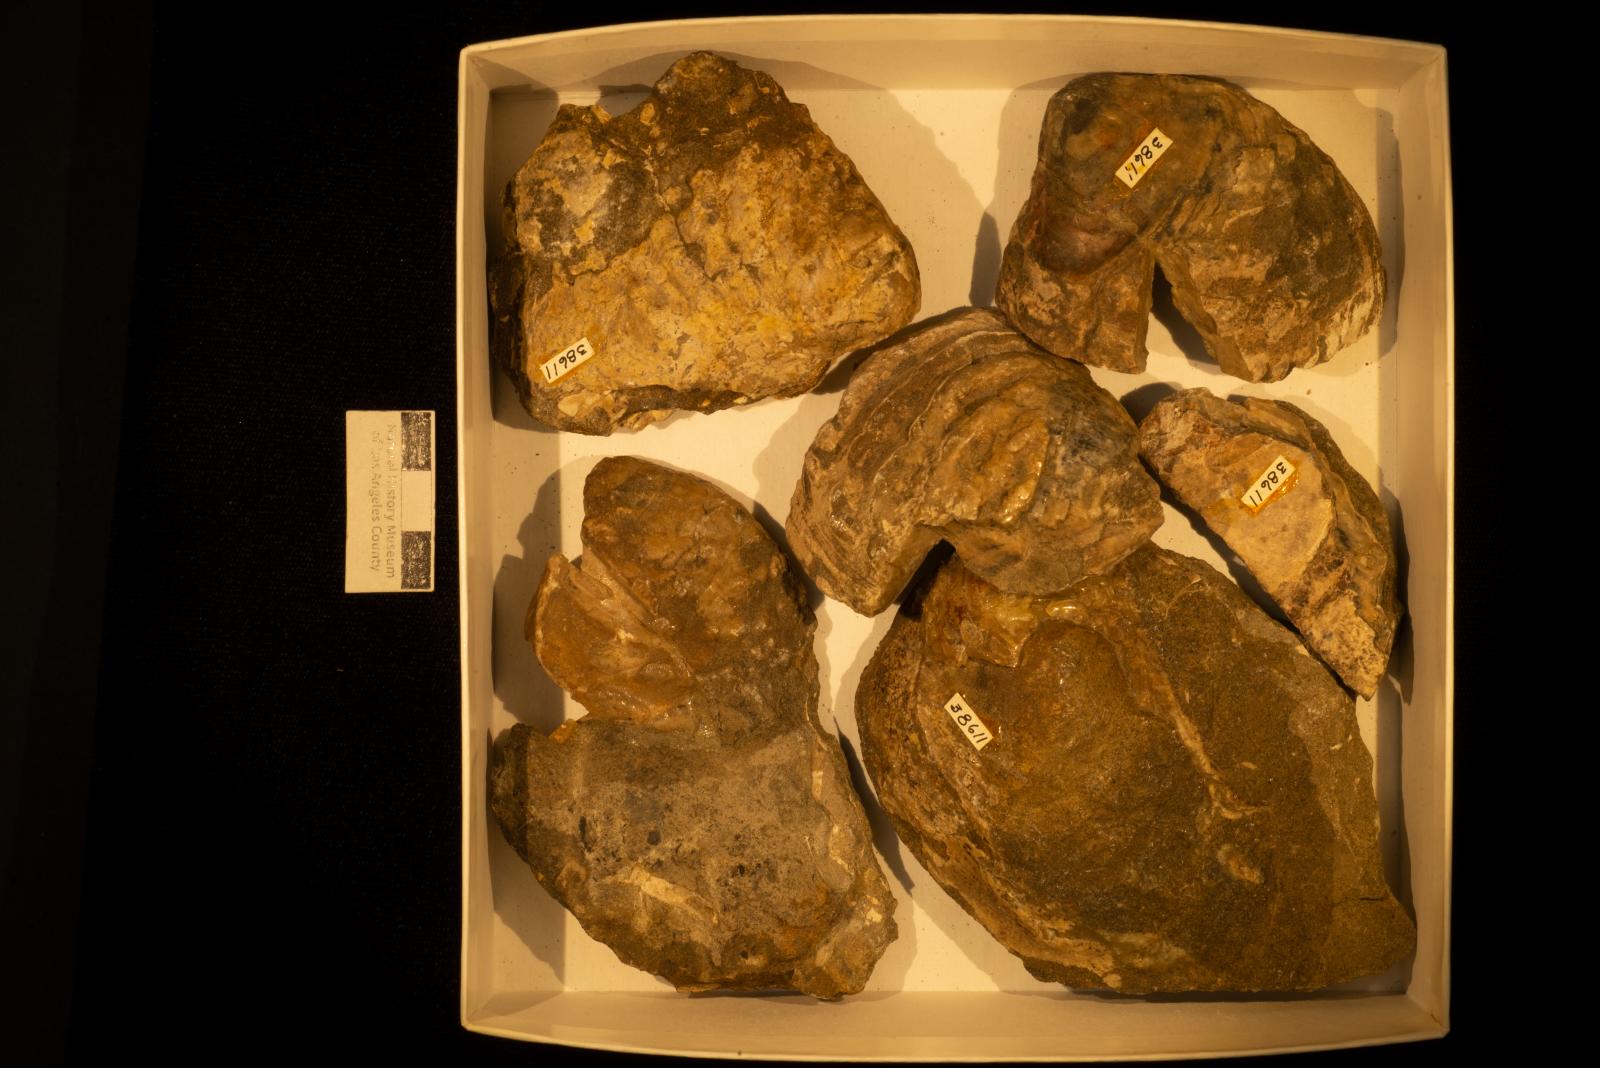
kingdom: Animalia
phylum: Mollusca
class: Bivalvia
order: Trigoniida
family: Steinmanellidae
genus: Yaadia
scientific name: Yaadia
